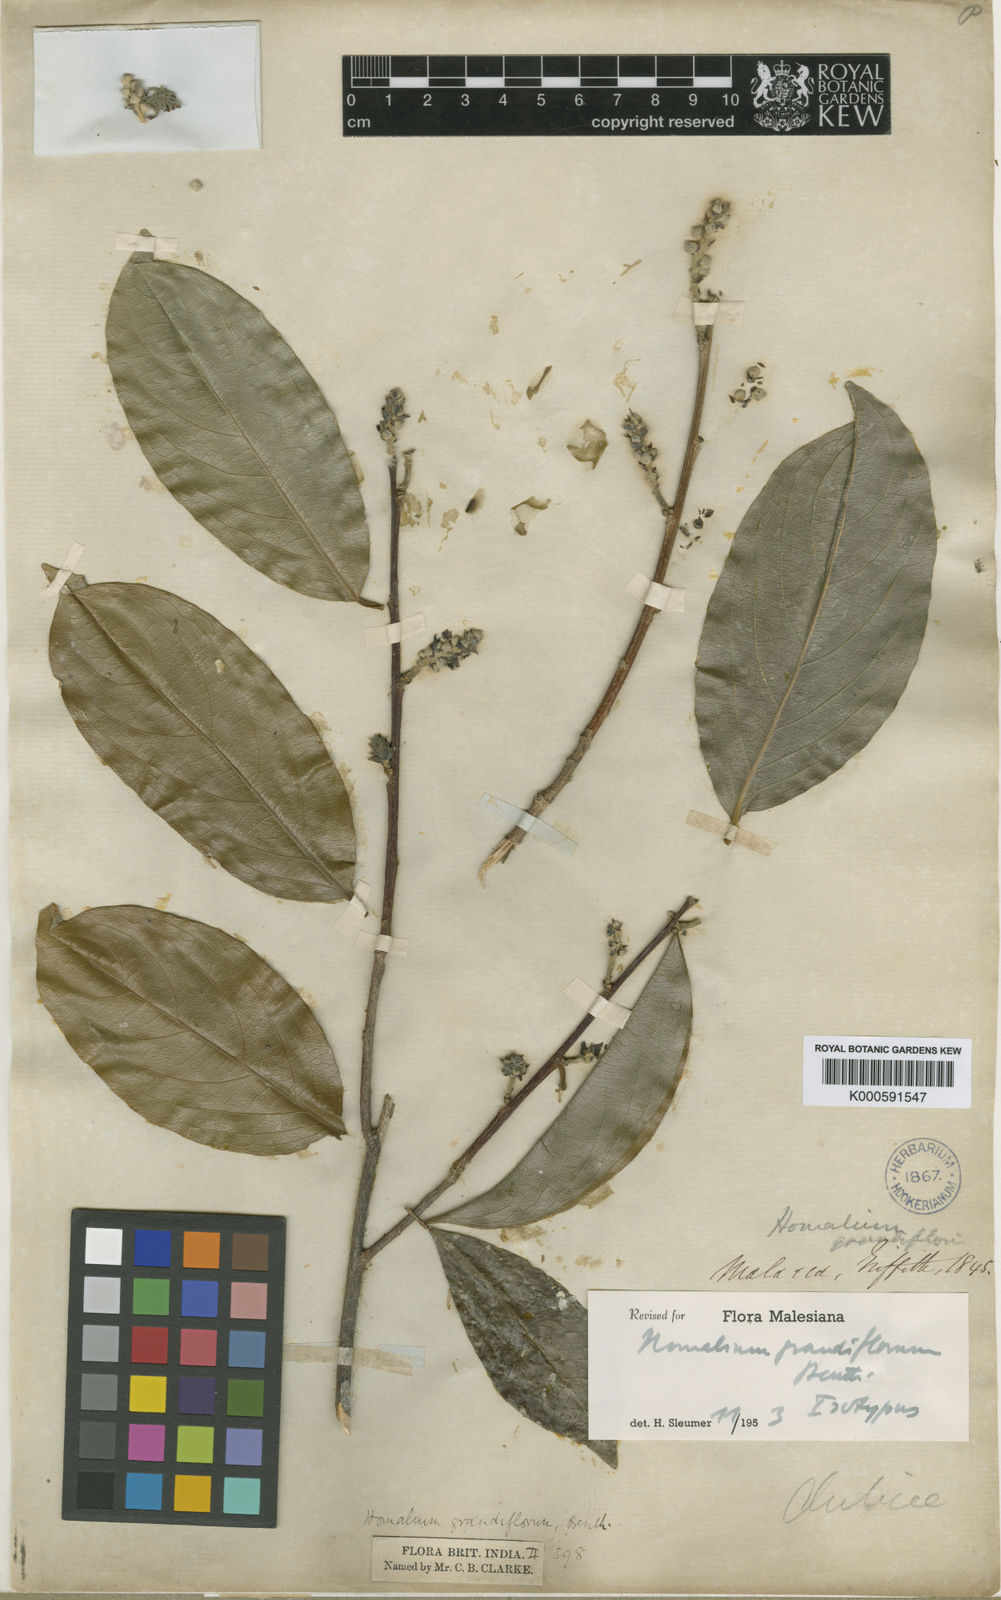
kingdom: Plantae
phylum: Tracheophyta
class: Magnoliopsida
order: Malpighiales
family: Salicaceae
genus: Homalium
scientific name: Homalium grandiflorum
